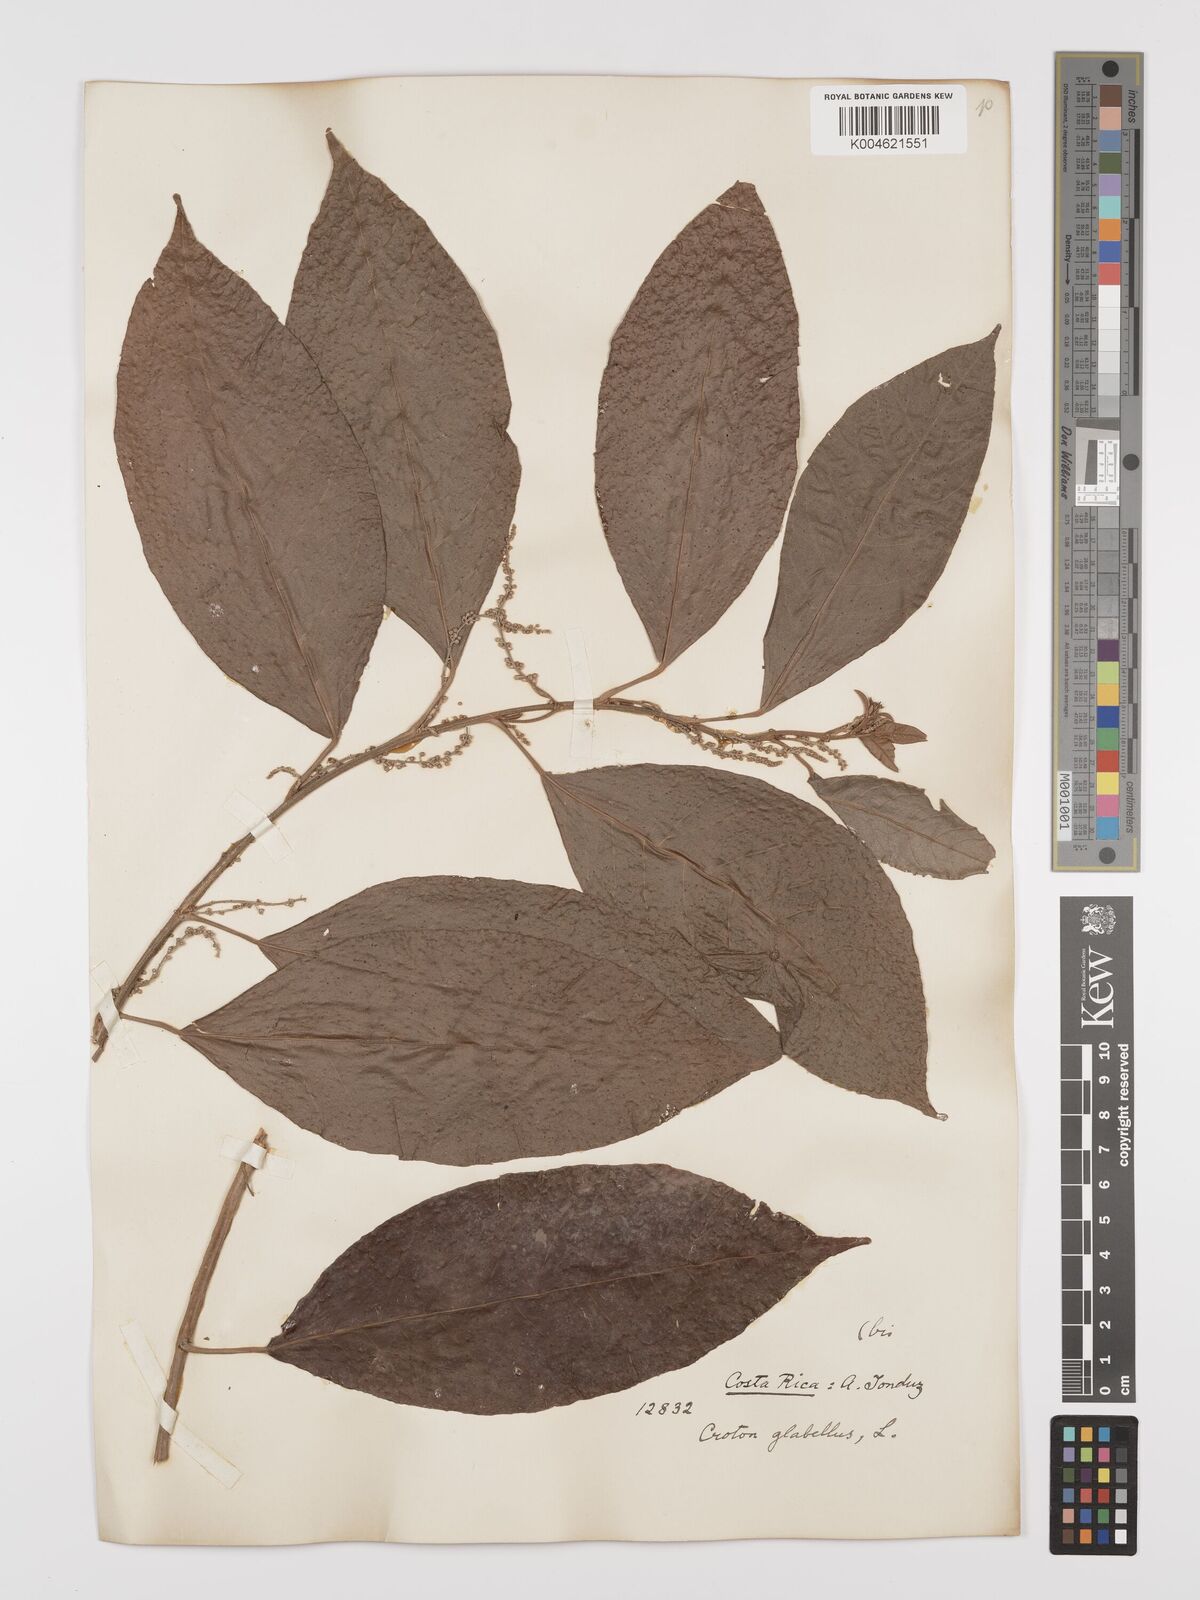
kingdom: Plantae
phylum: Tracheophyta
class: Magnoliopsida
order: Malpighiales
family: Euphorbiaceae
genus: Croton
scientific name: Croton glabellus
